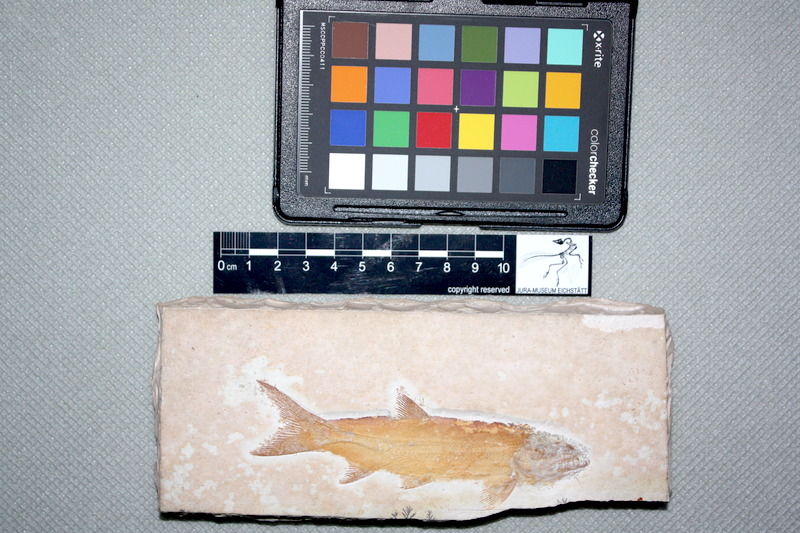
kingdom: Animalia
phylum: Chordata
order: Amiiformes
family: Caturidae
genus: Amblysemius
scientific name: Amblysemius bellicianus
